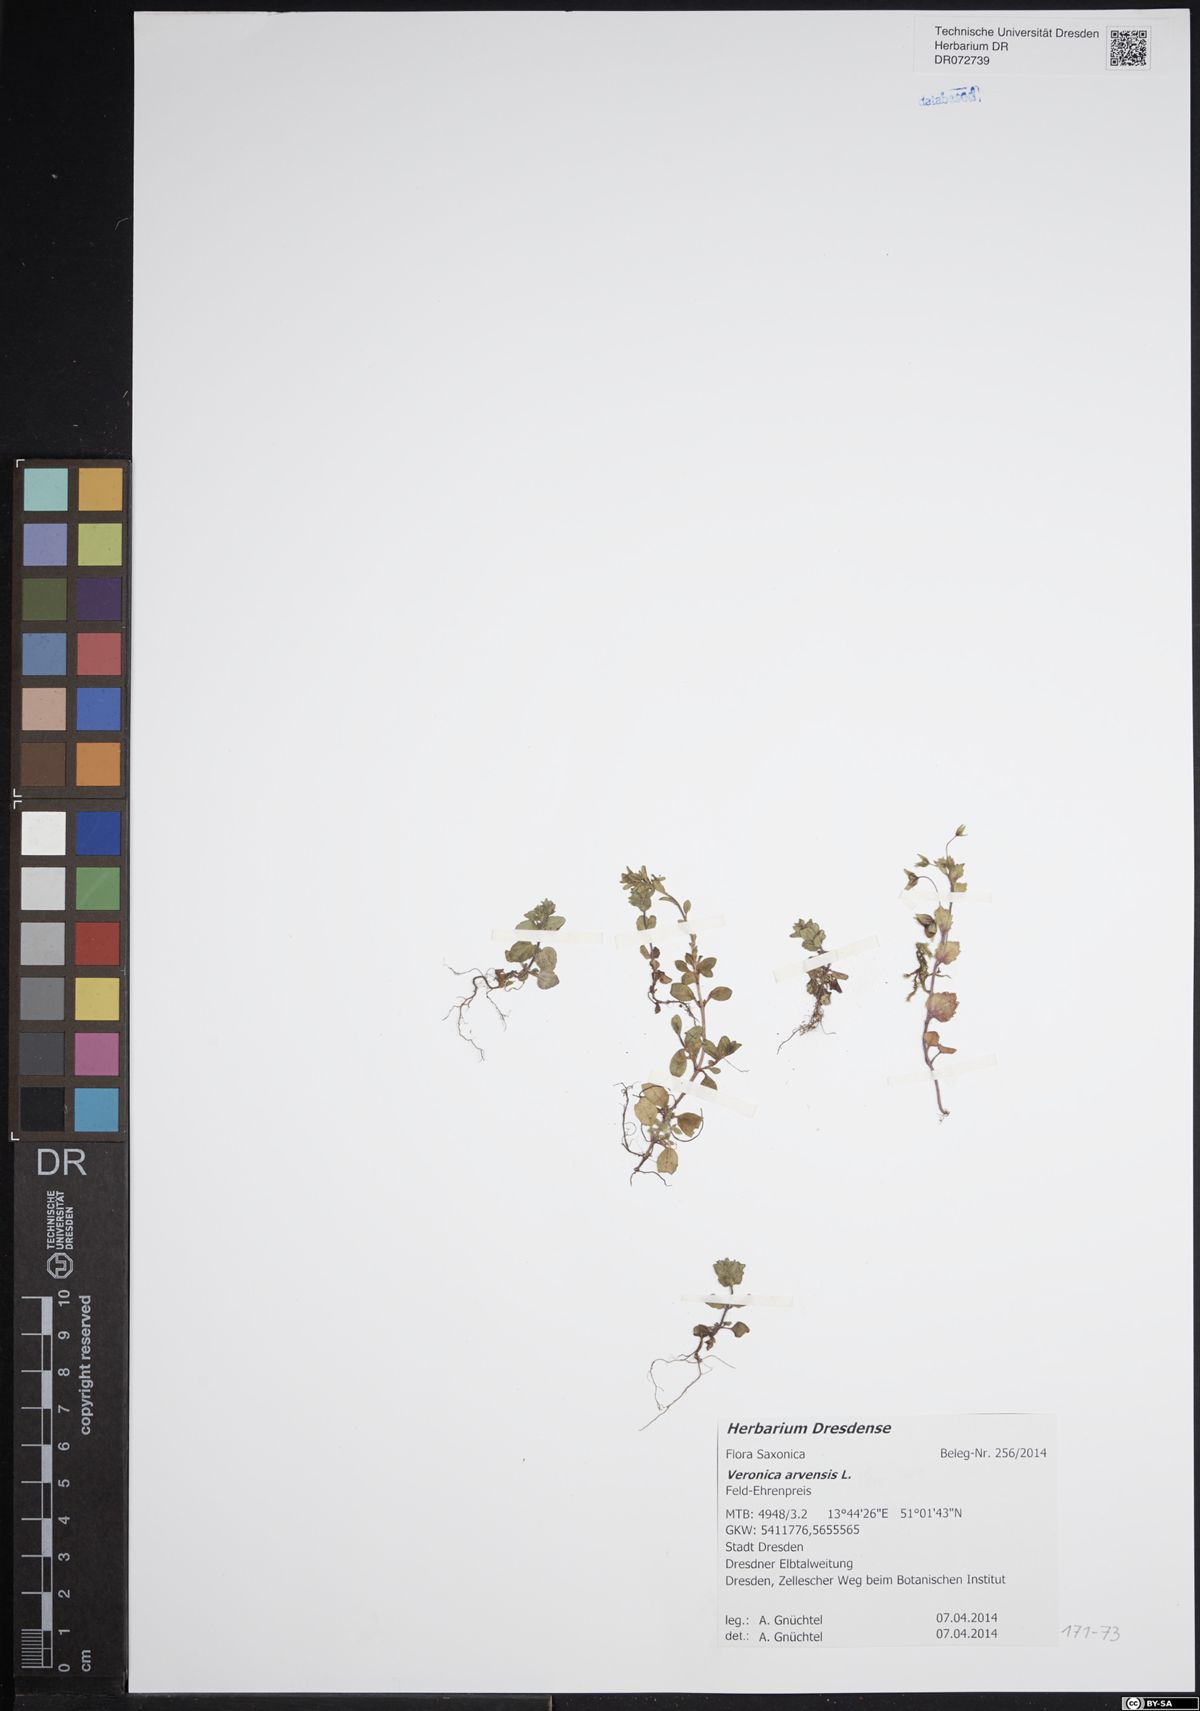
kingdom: Plantae
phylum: Tracheophyta
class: Magnoliopsida
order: Lamiales
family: Plantaginaceae
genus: Veronica
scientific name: Veronica arvensis
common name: Corn speedwell
